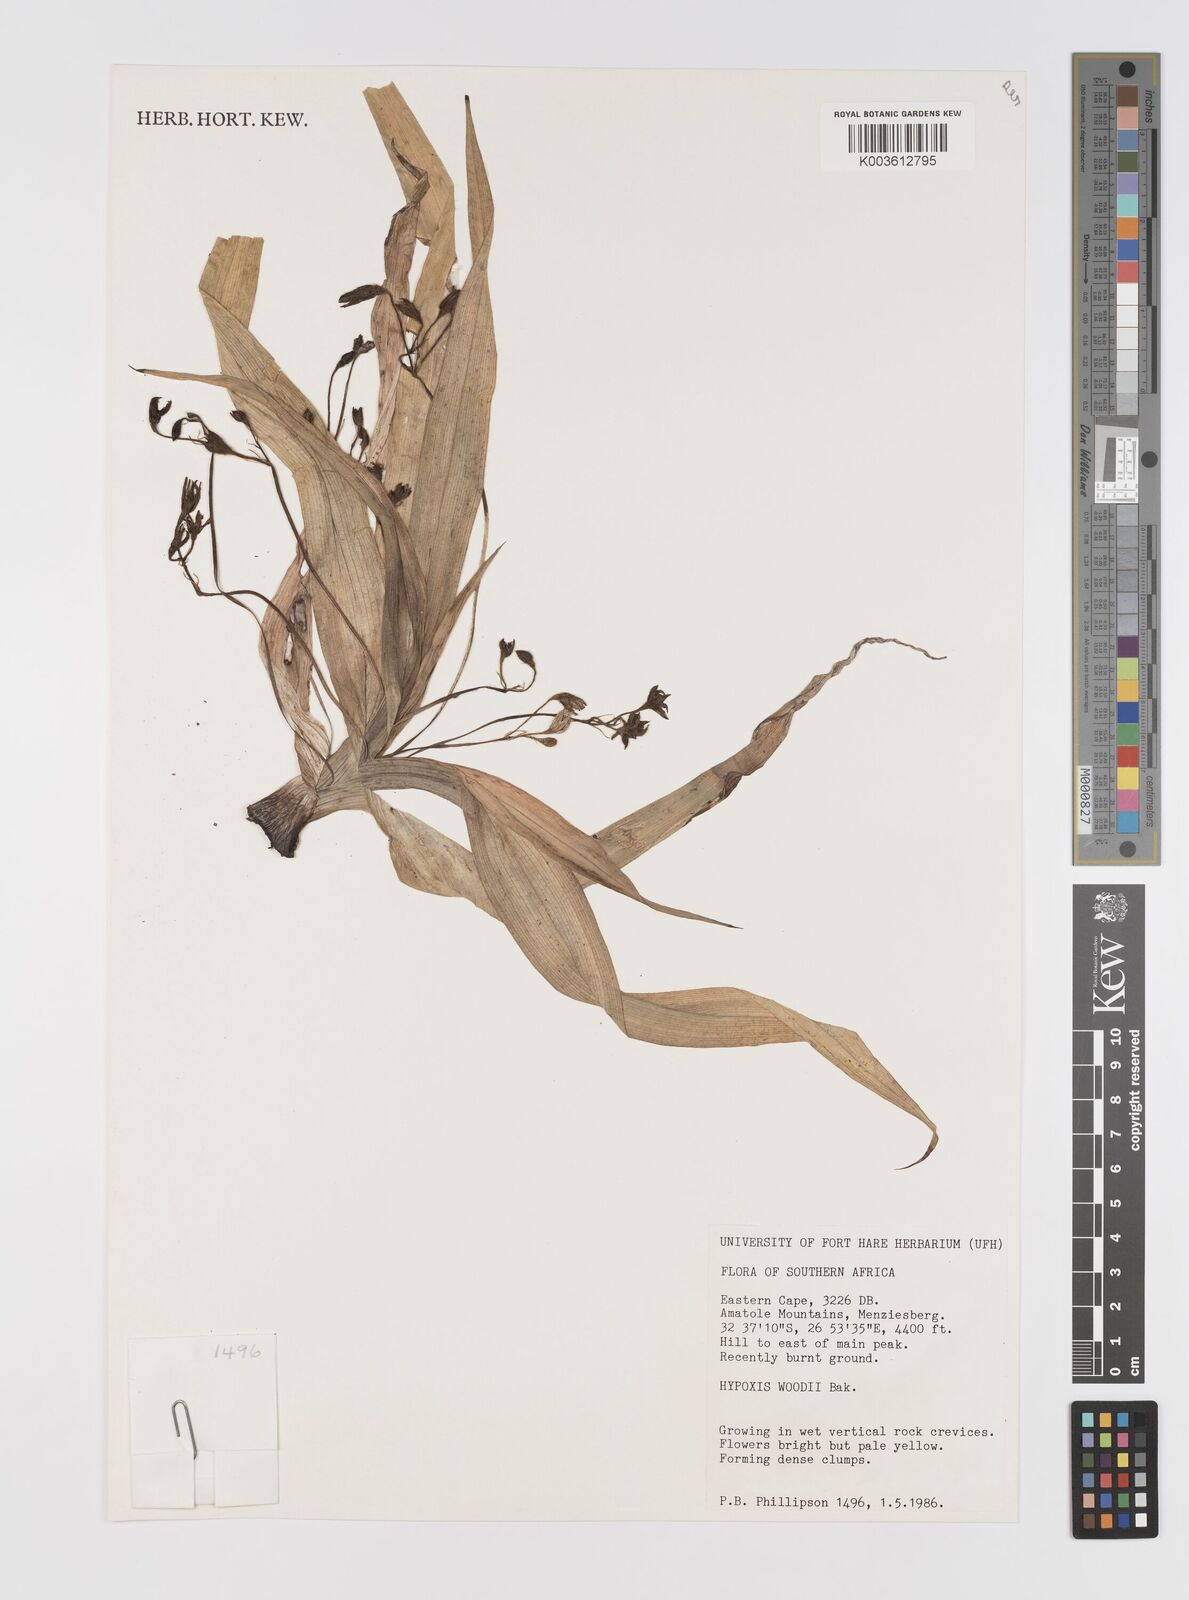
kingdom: Plantae
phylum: Tracheophyta
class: Liliopsida
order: Asparagales
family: Hypoxidaceae
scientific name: Hypoxidaceae
